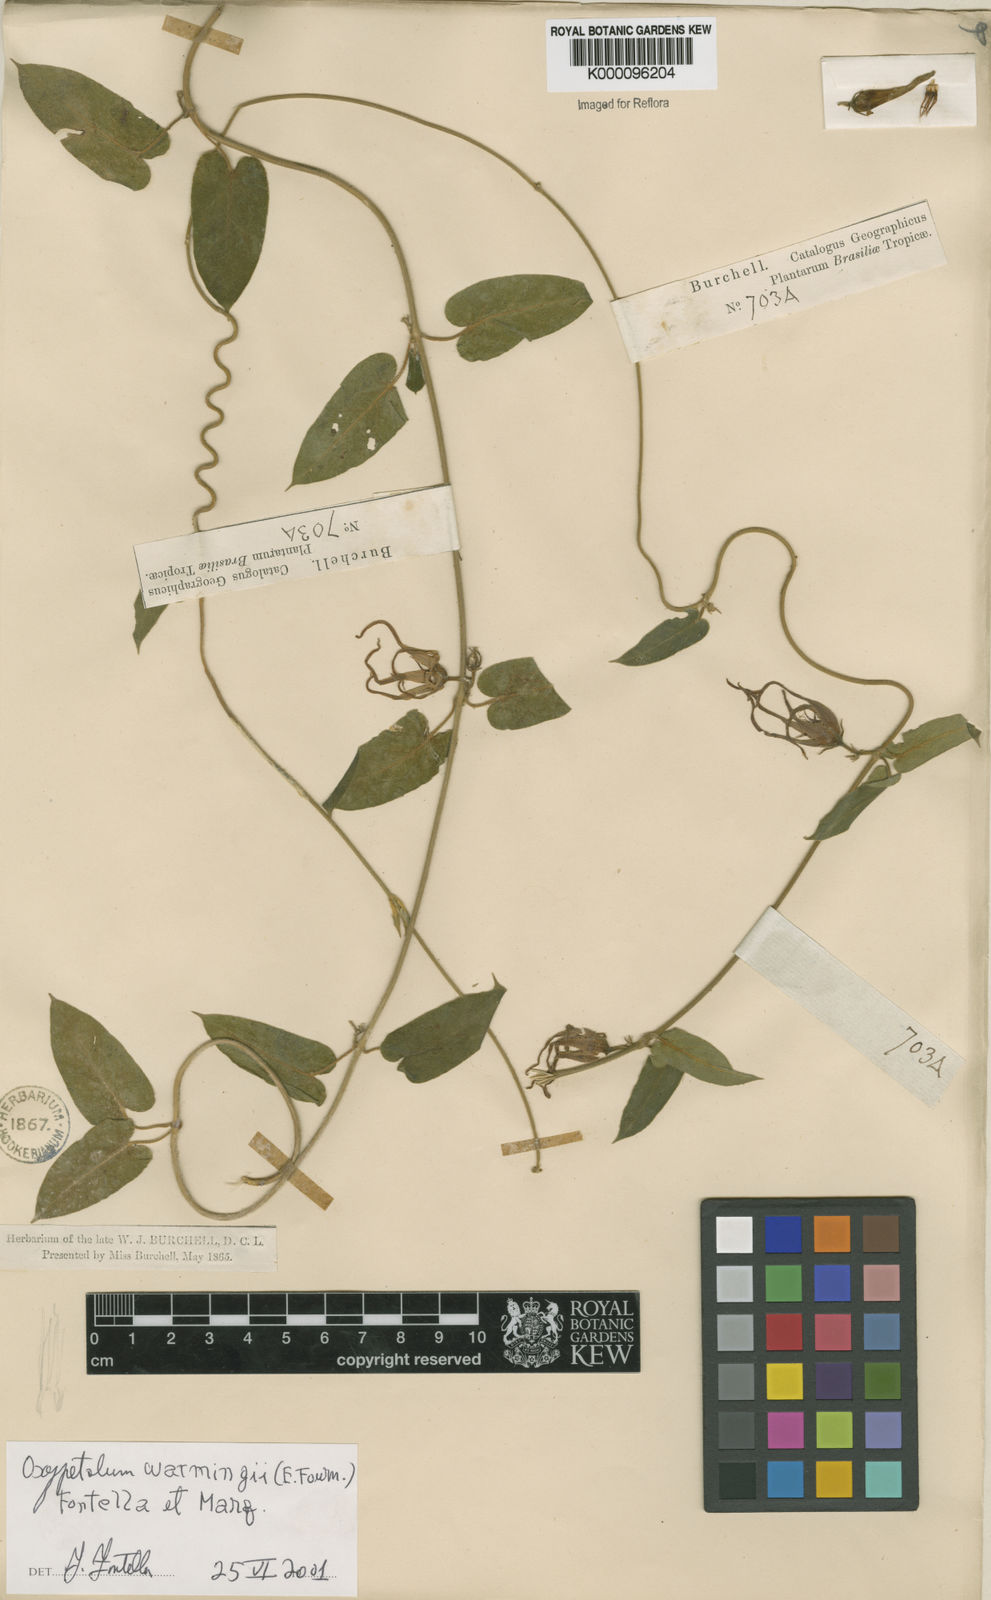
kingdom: Plantae
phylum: Tracheophyta
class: Magnoliopsida
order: Gentianales
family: Apocynaceae
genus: Oxypetalum
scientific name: Oxypetalum warmingii
